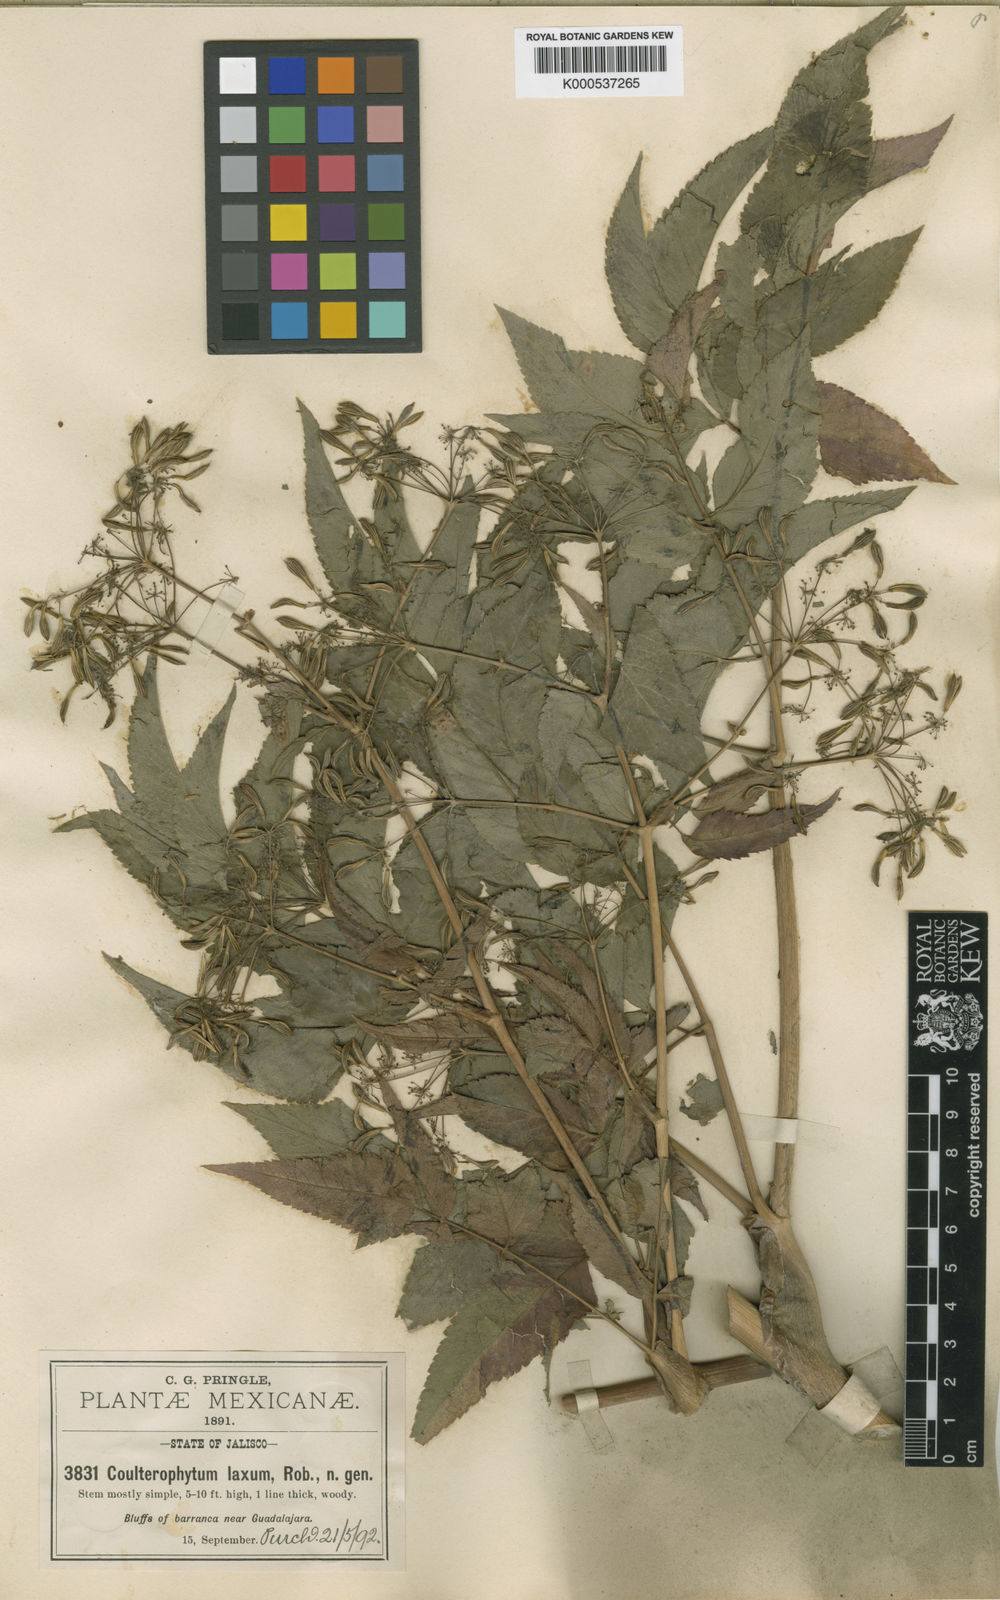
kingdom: Plantae
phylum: Tracheophyta
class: Magnoliopsida
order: Apiales
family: Apiaceae
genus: Coulterophytum
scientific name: Coulterophytum laxum
